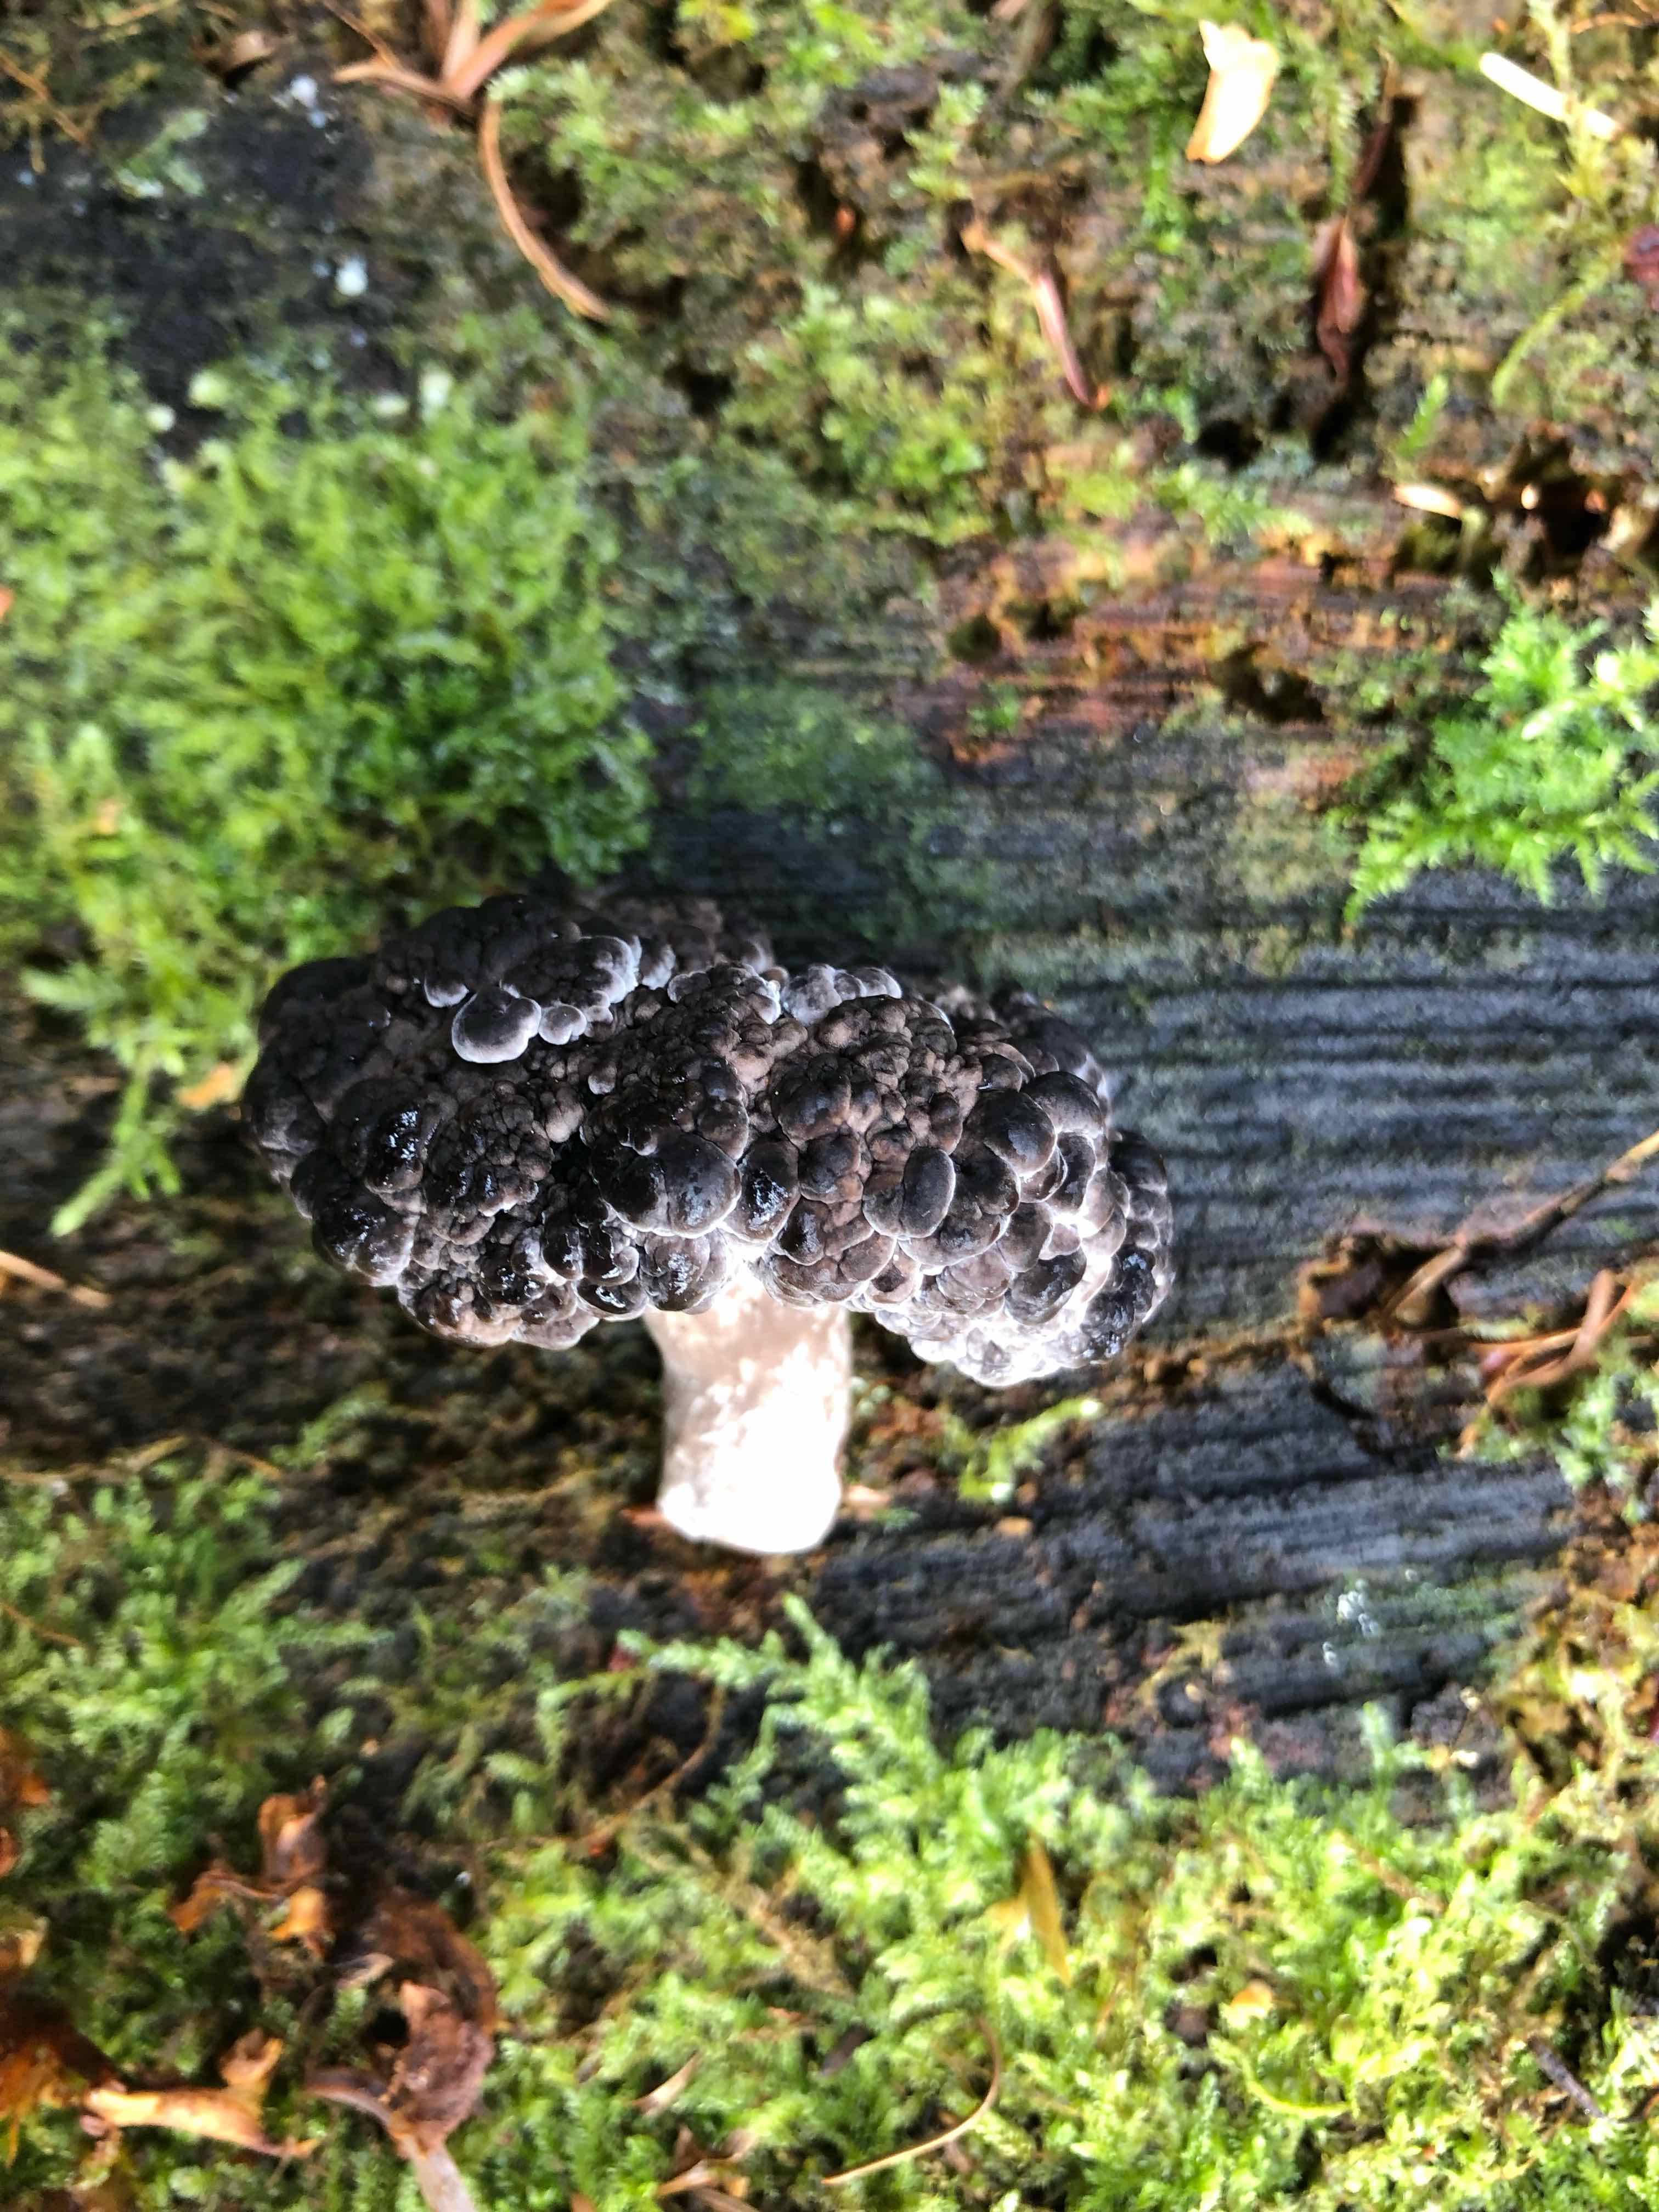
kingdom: Fungi
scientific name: Fungi
